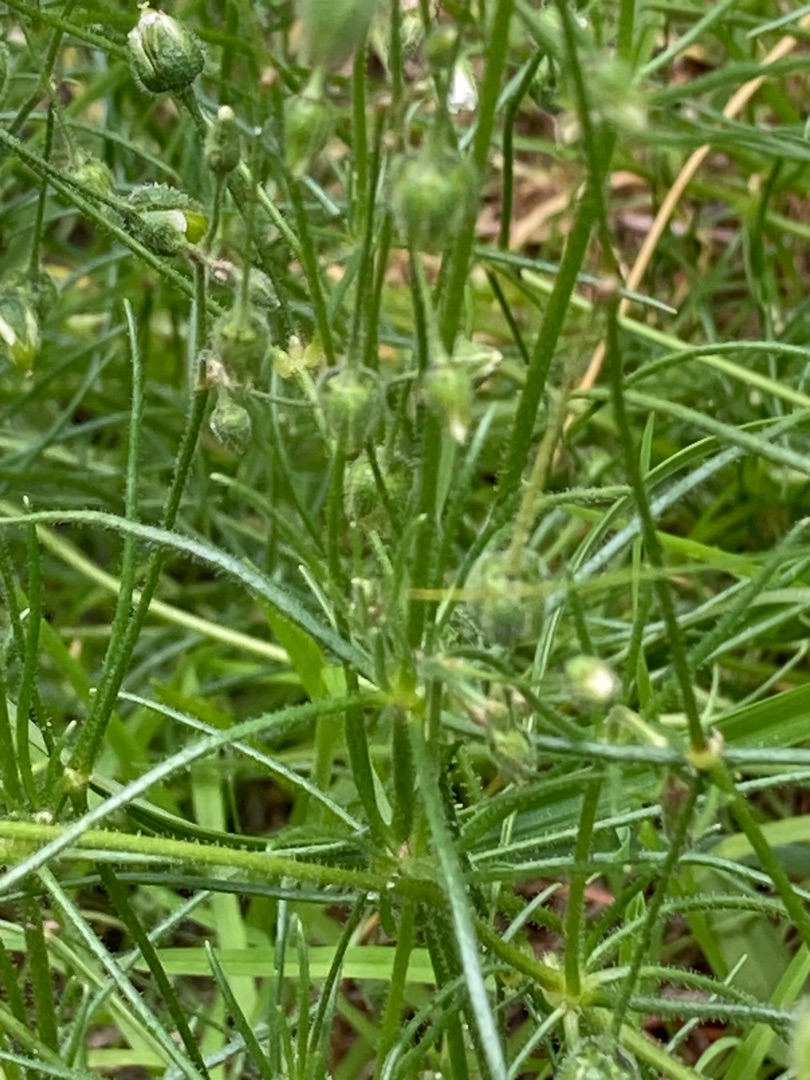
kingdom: Plantae
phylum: Tracheophyta
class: Magnoliopsida
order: Caryophyllales
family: Caryophyllaceae
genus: Spergula
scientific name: Spergula arvensis
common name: Almindelig spergel
